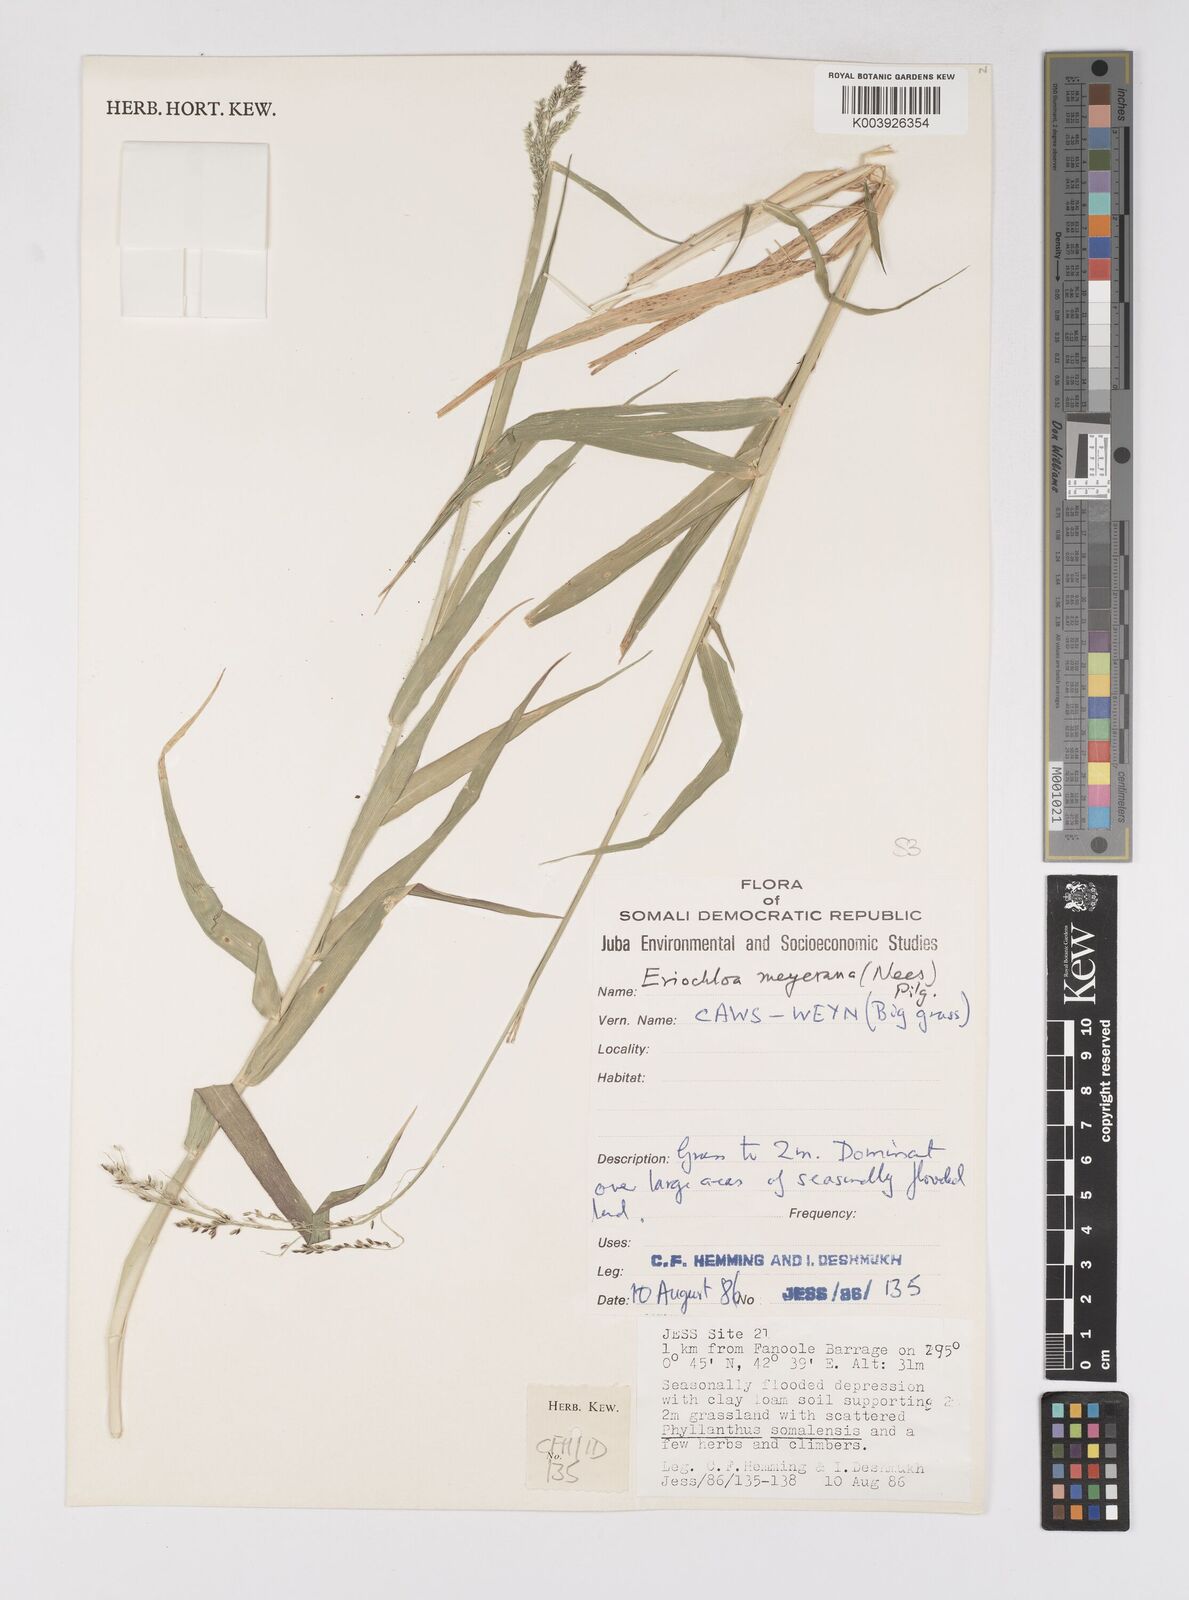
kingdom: Plantae
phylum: Tracheophyta
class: Liliopsida
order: Poales
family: Poaceae
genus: Eriochloa
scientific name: Eriochloa meyeriana
